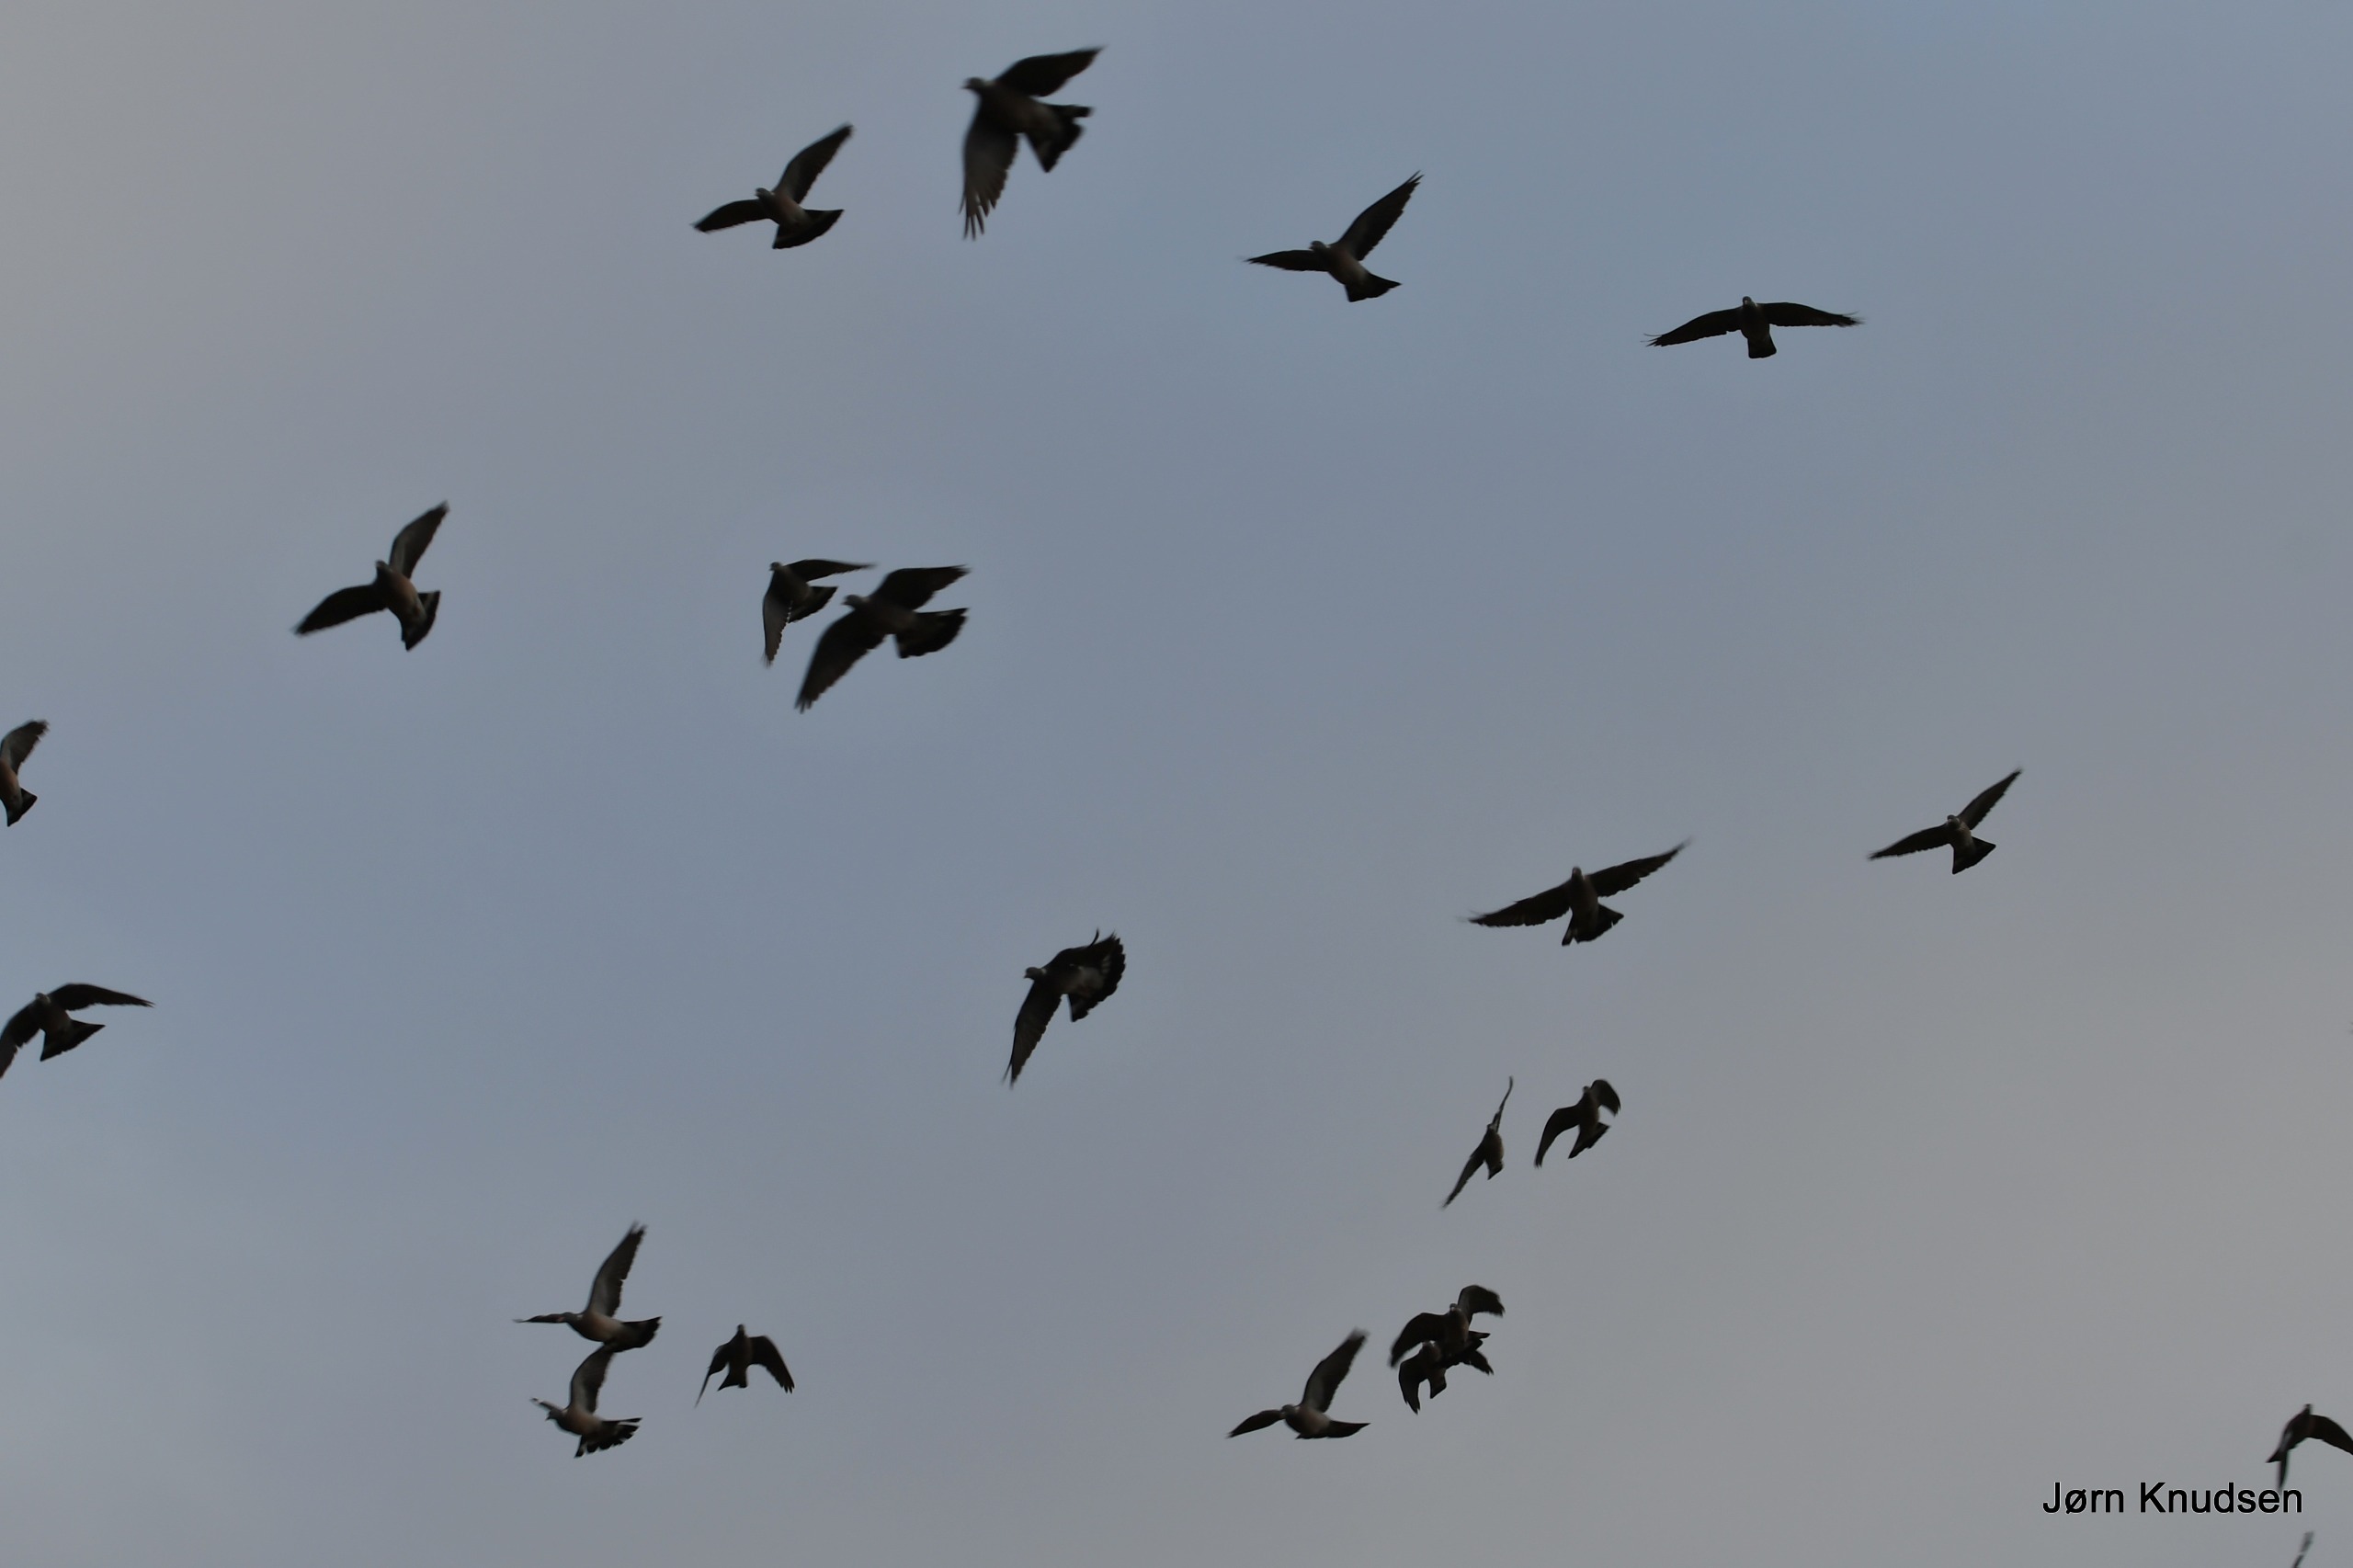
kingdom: Animalia
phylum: Chordata
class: Aves
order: Columbiformes
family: Columbidae
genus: Columba
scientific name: Columba palumbus
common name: Ringdue
